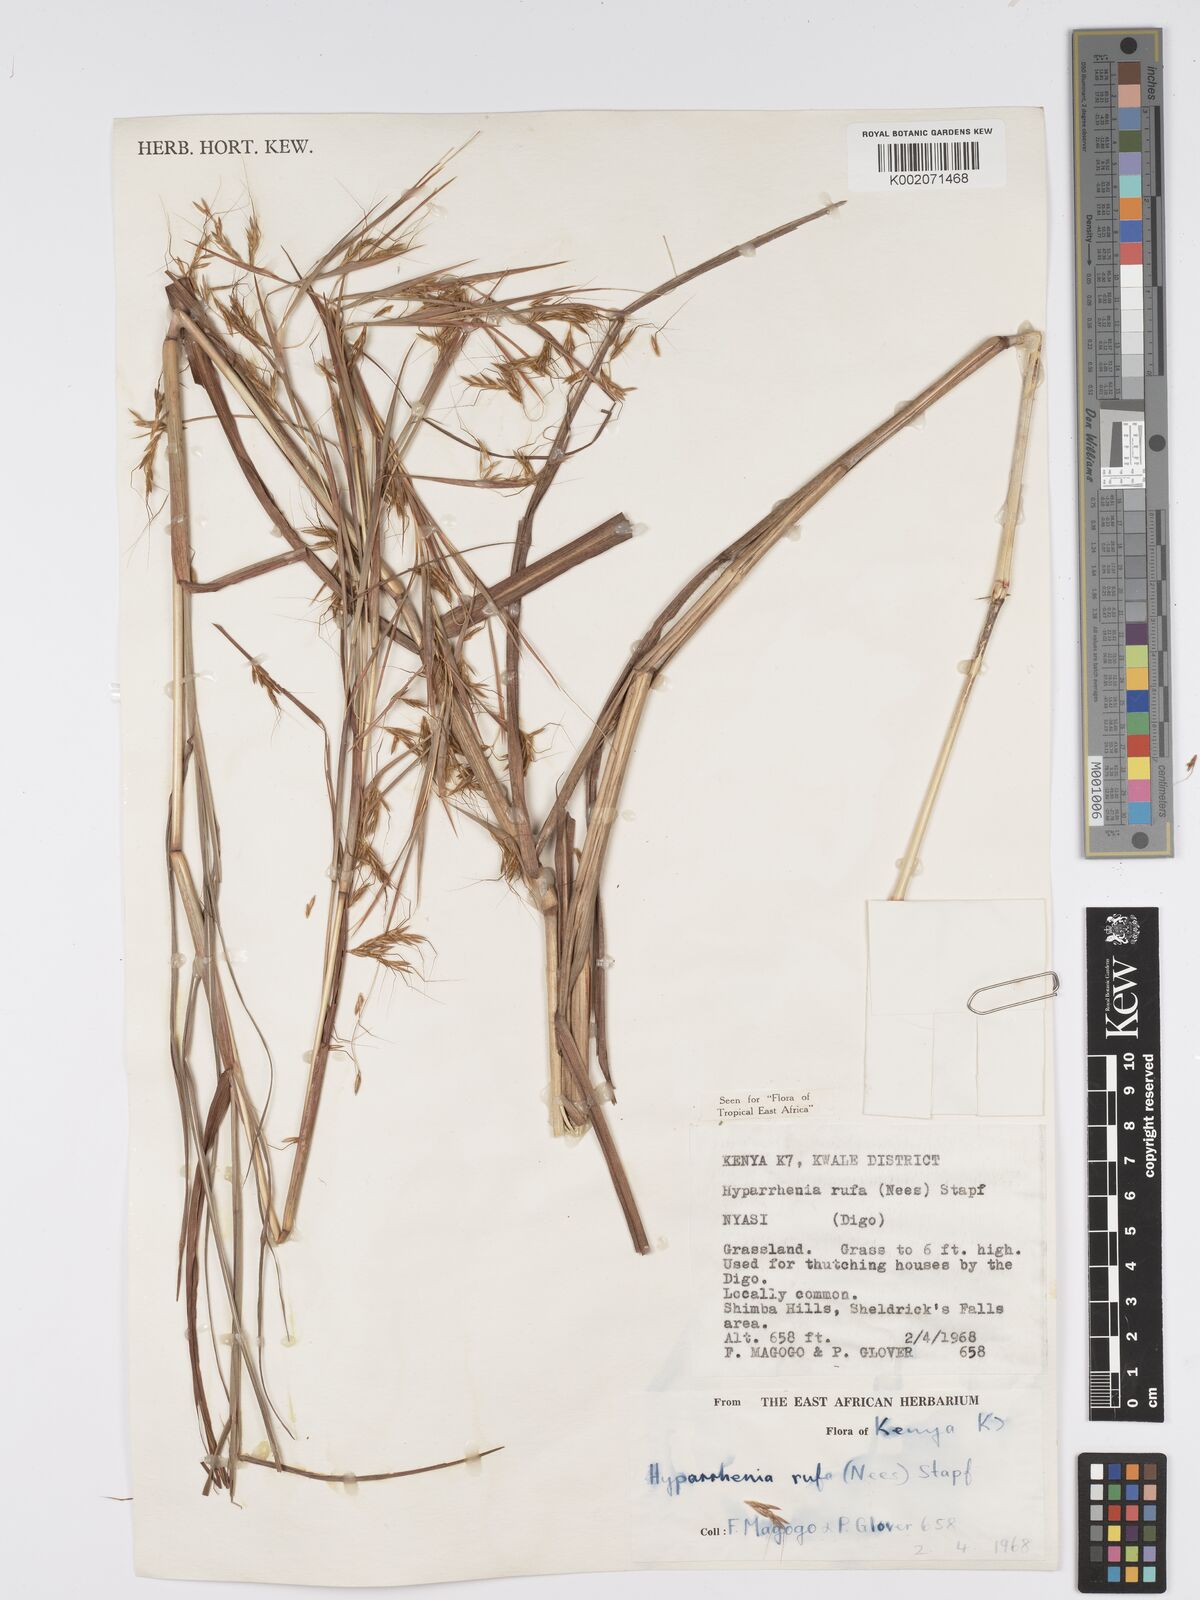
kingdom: Plantae
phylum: Tracheophyta
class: Liliopsida
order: Poales
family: Poaceae
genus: Hyparrhenia
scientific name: Hyparrhenia rufa
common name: Jaraguagrass
